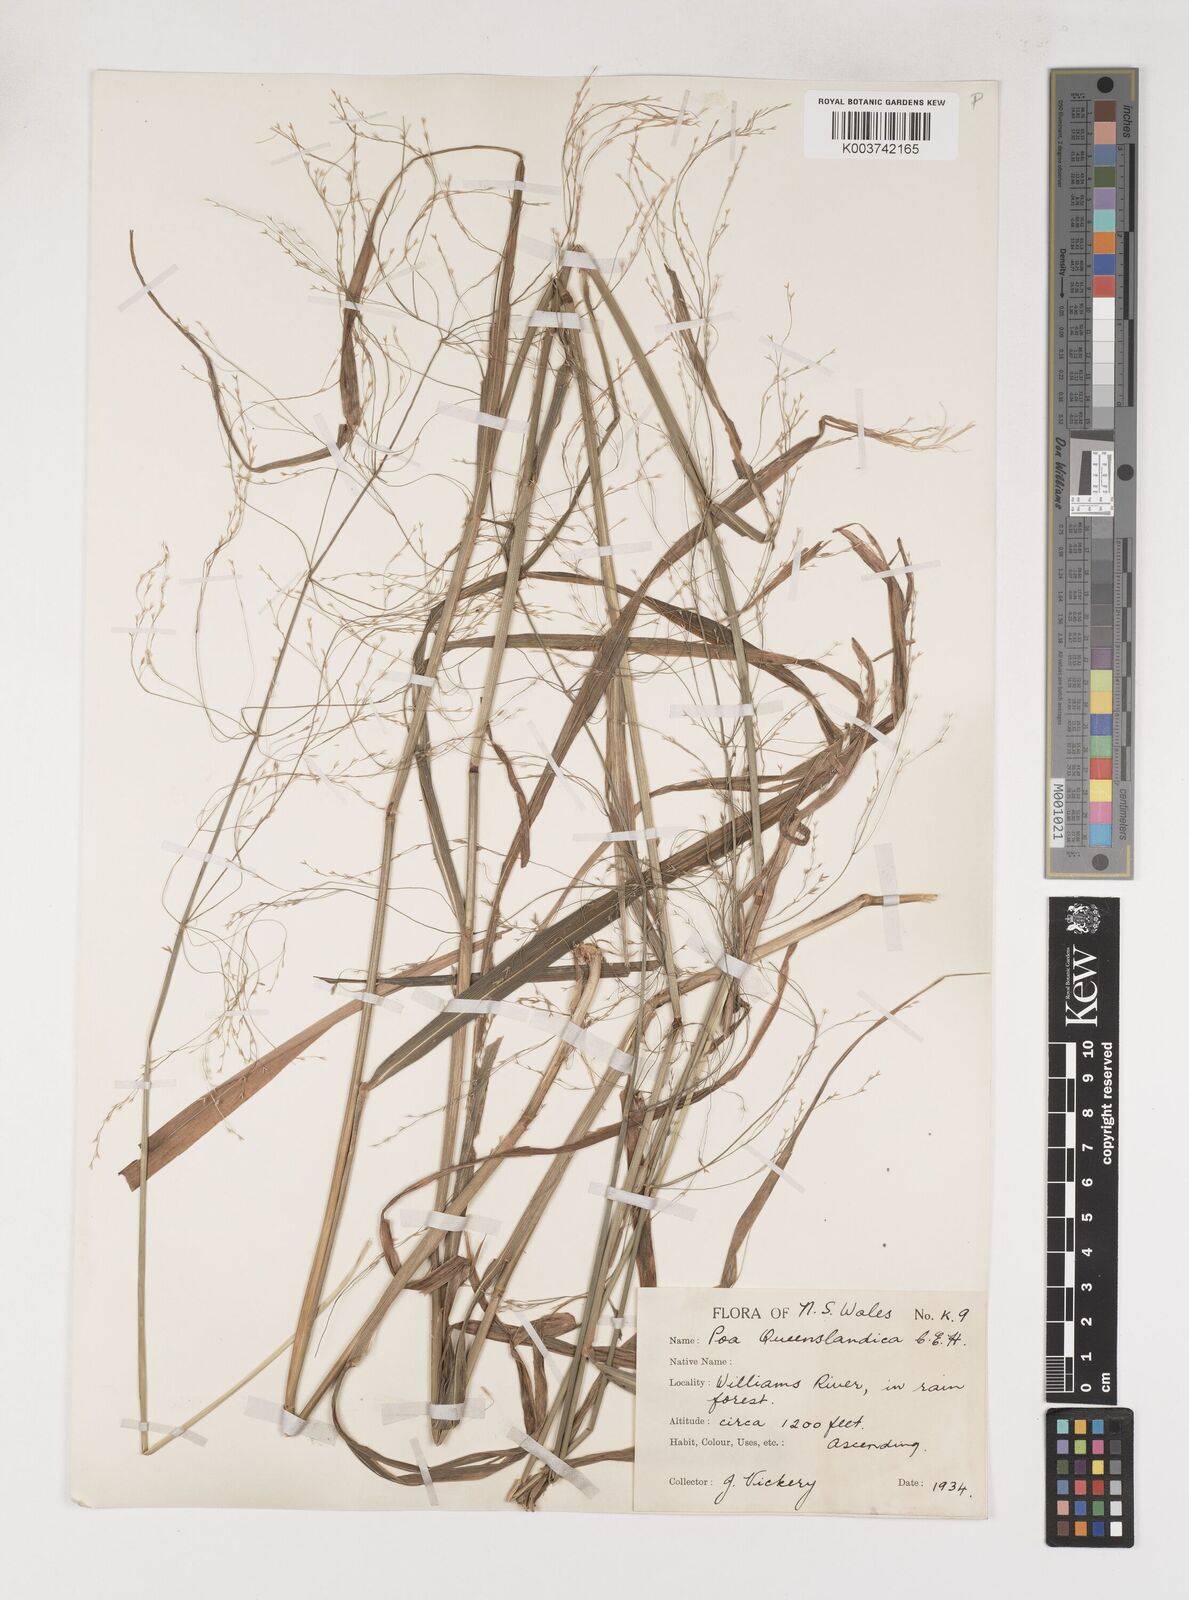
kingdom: Plantae
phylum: Tracheophyta
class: Liliopsida
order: Poales
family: Poaceae
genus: Sylvipoa
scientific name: Sylvipoa queenslandica
